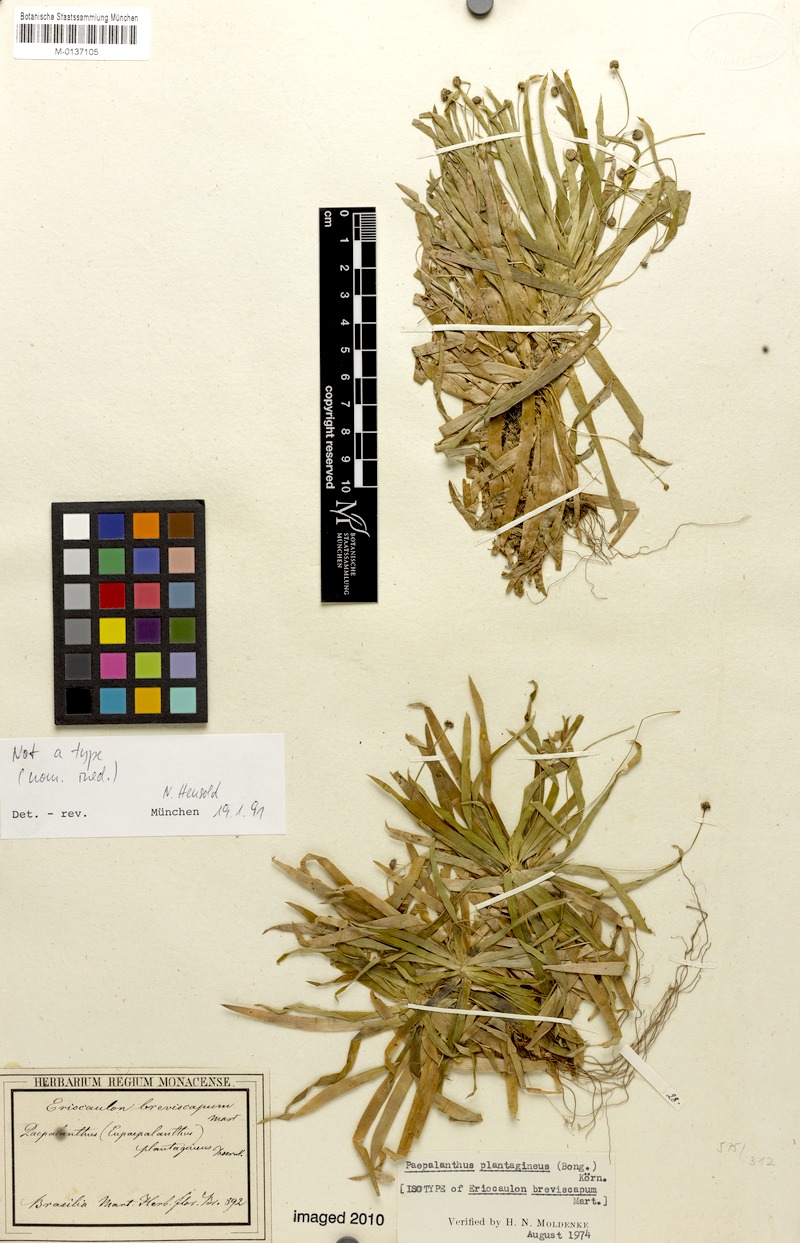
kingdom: Plantae
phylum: Tracheophyta
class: Liliopsida
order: Poales
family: Eriocaulaceae
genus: Paepalanthus
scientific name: Paepalanthus plantagineus
